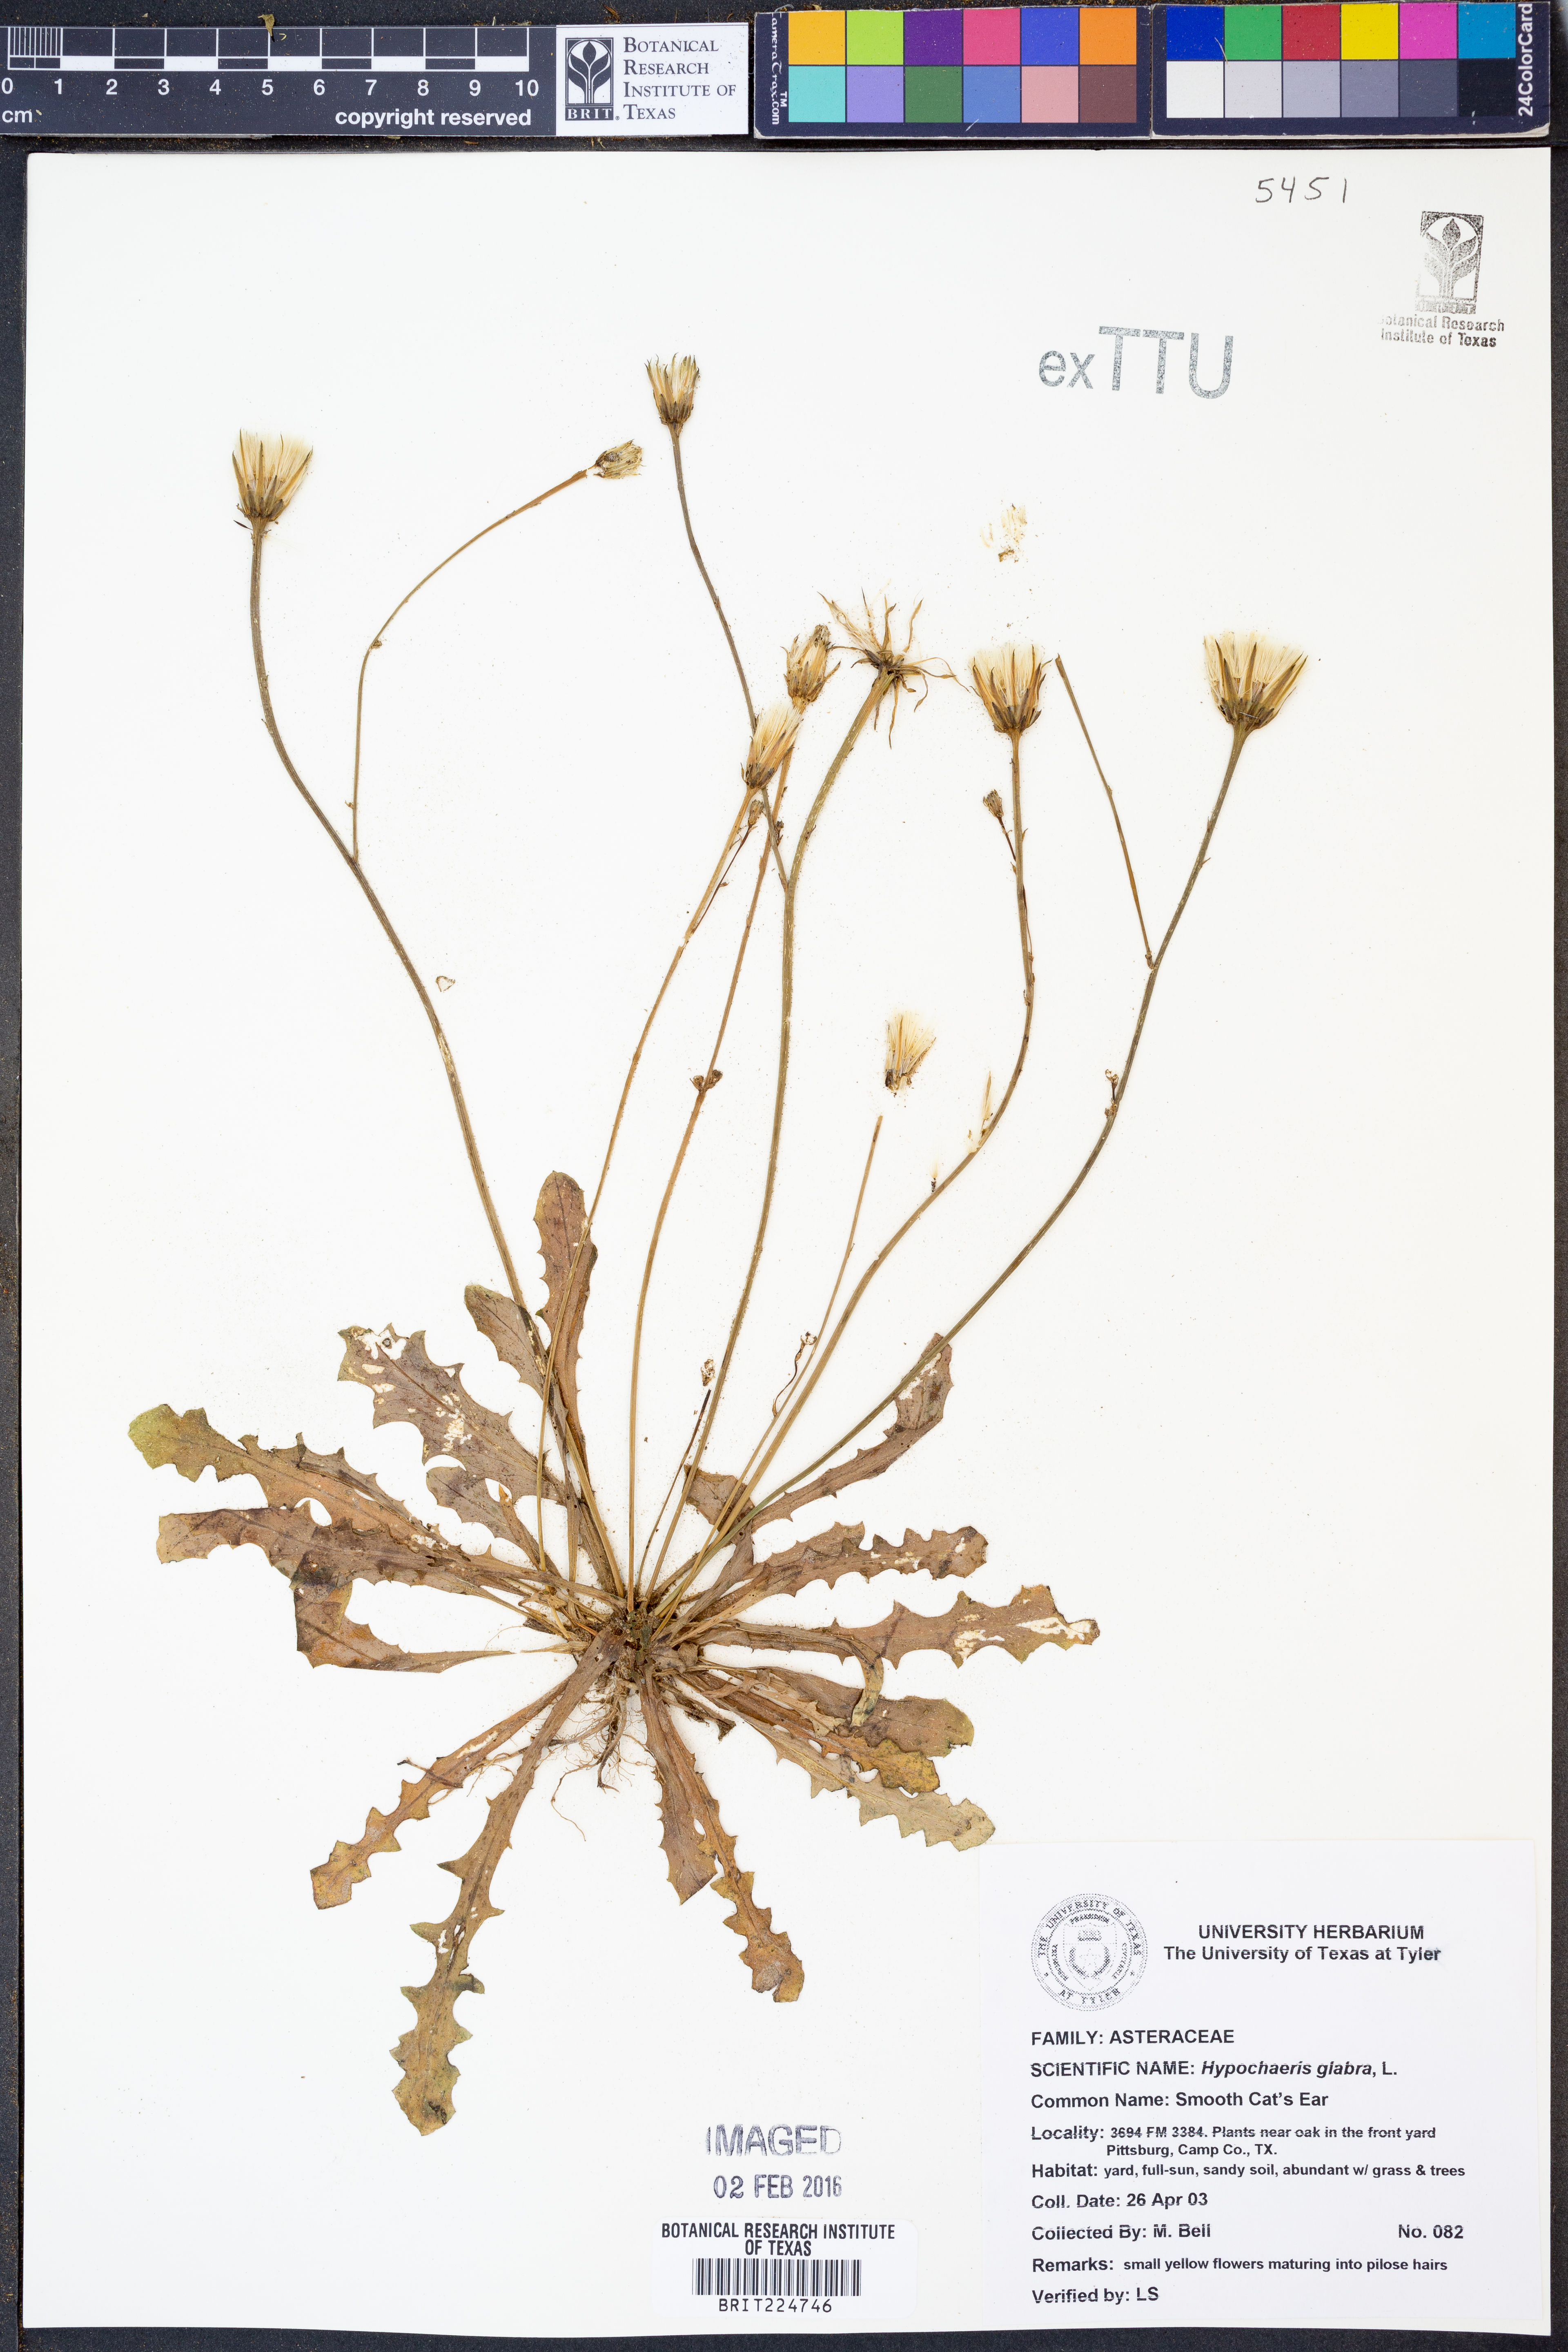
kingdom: Plantae
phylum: Tracheophyta
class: Magnoliopsida
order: Asterales
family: Asteraceae
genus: Hypochaeris
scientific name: Hypochaeris glabra
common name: Smooth catsear
